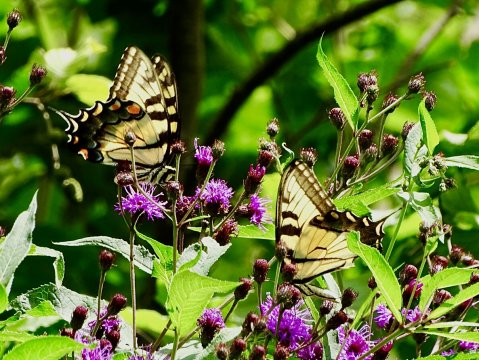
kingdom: Animalia
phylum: Arthropoda
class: Insecta
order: Lepidoptera
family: Papilionidae
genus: Pterourus
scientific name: Pterourus glaucus
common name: Eastern Tiger Swallowtail
